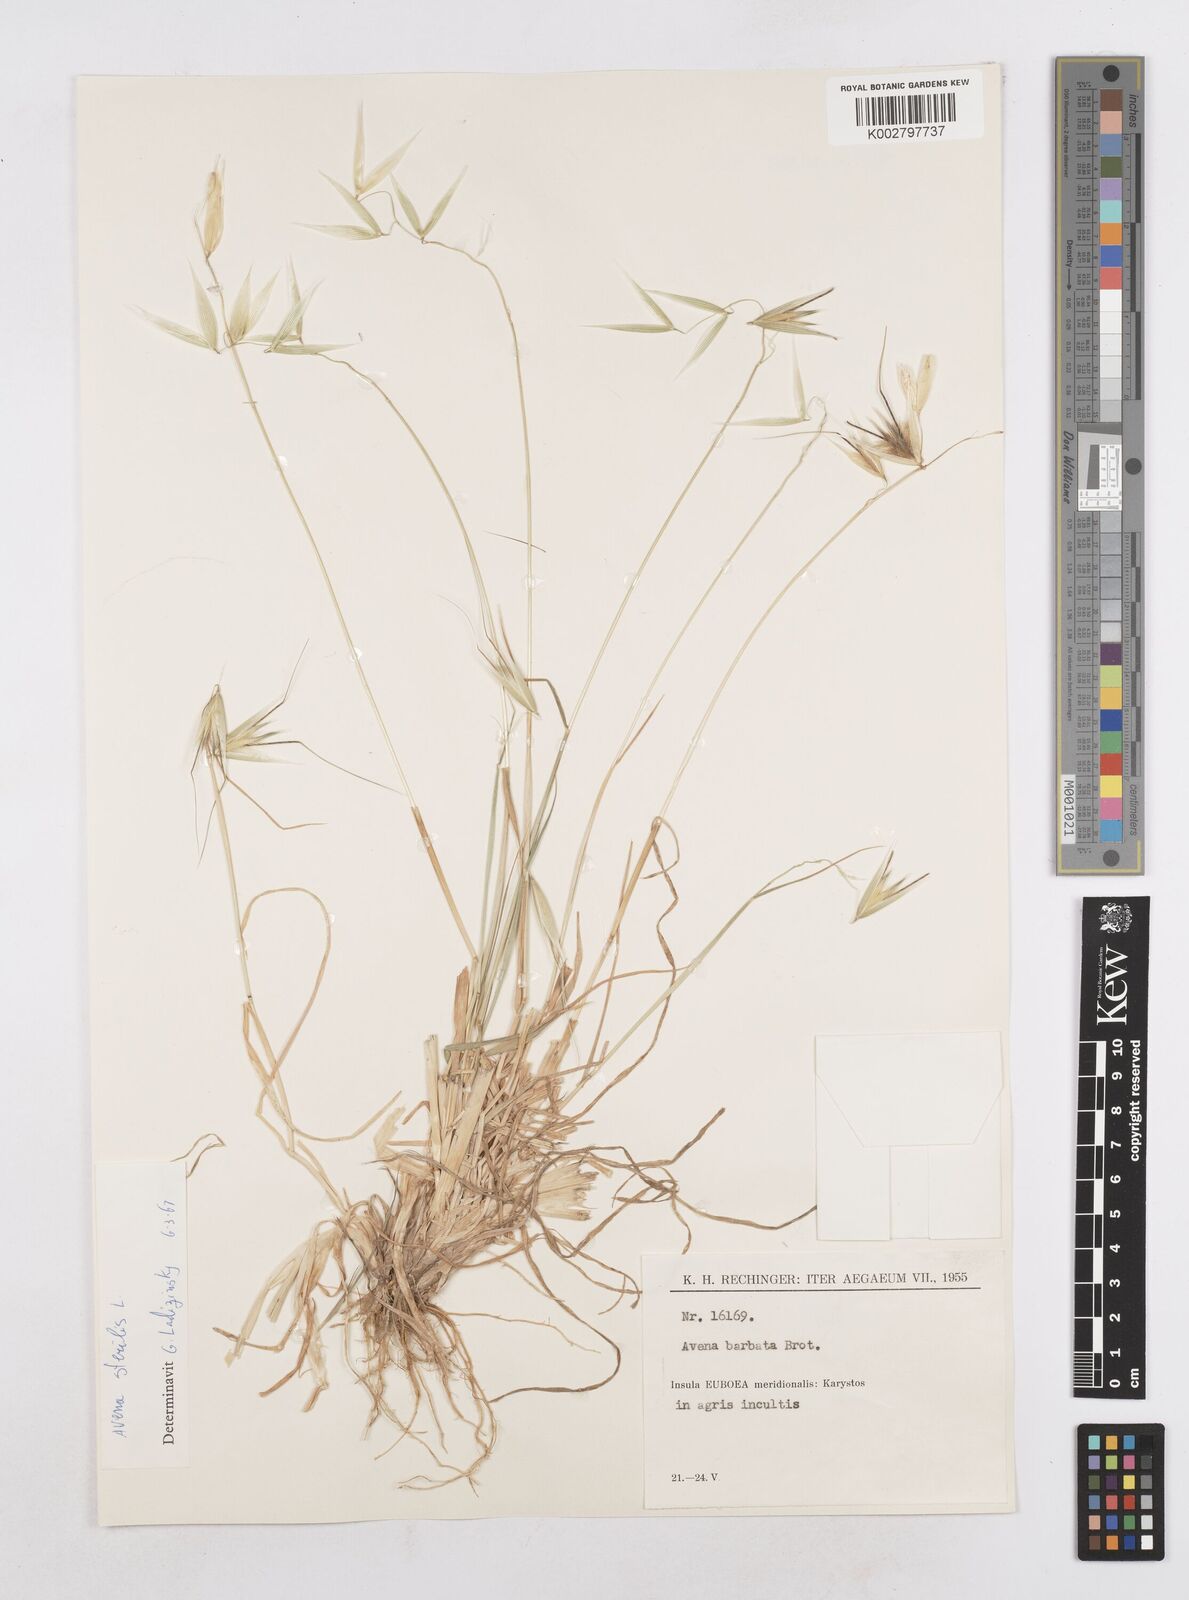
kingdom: Plantae
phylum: Tracheophyta
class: Liliopsida
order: Poales
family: Poaceae
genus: Avena
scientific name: Avena sterilis
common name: Animated oat
